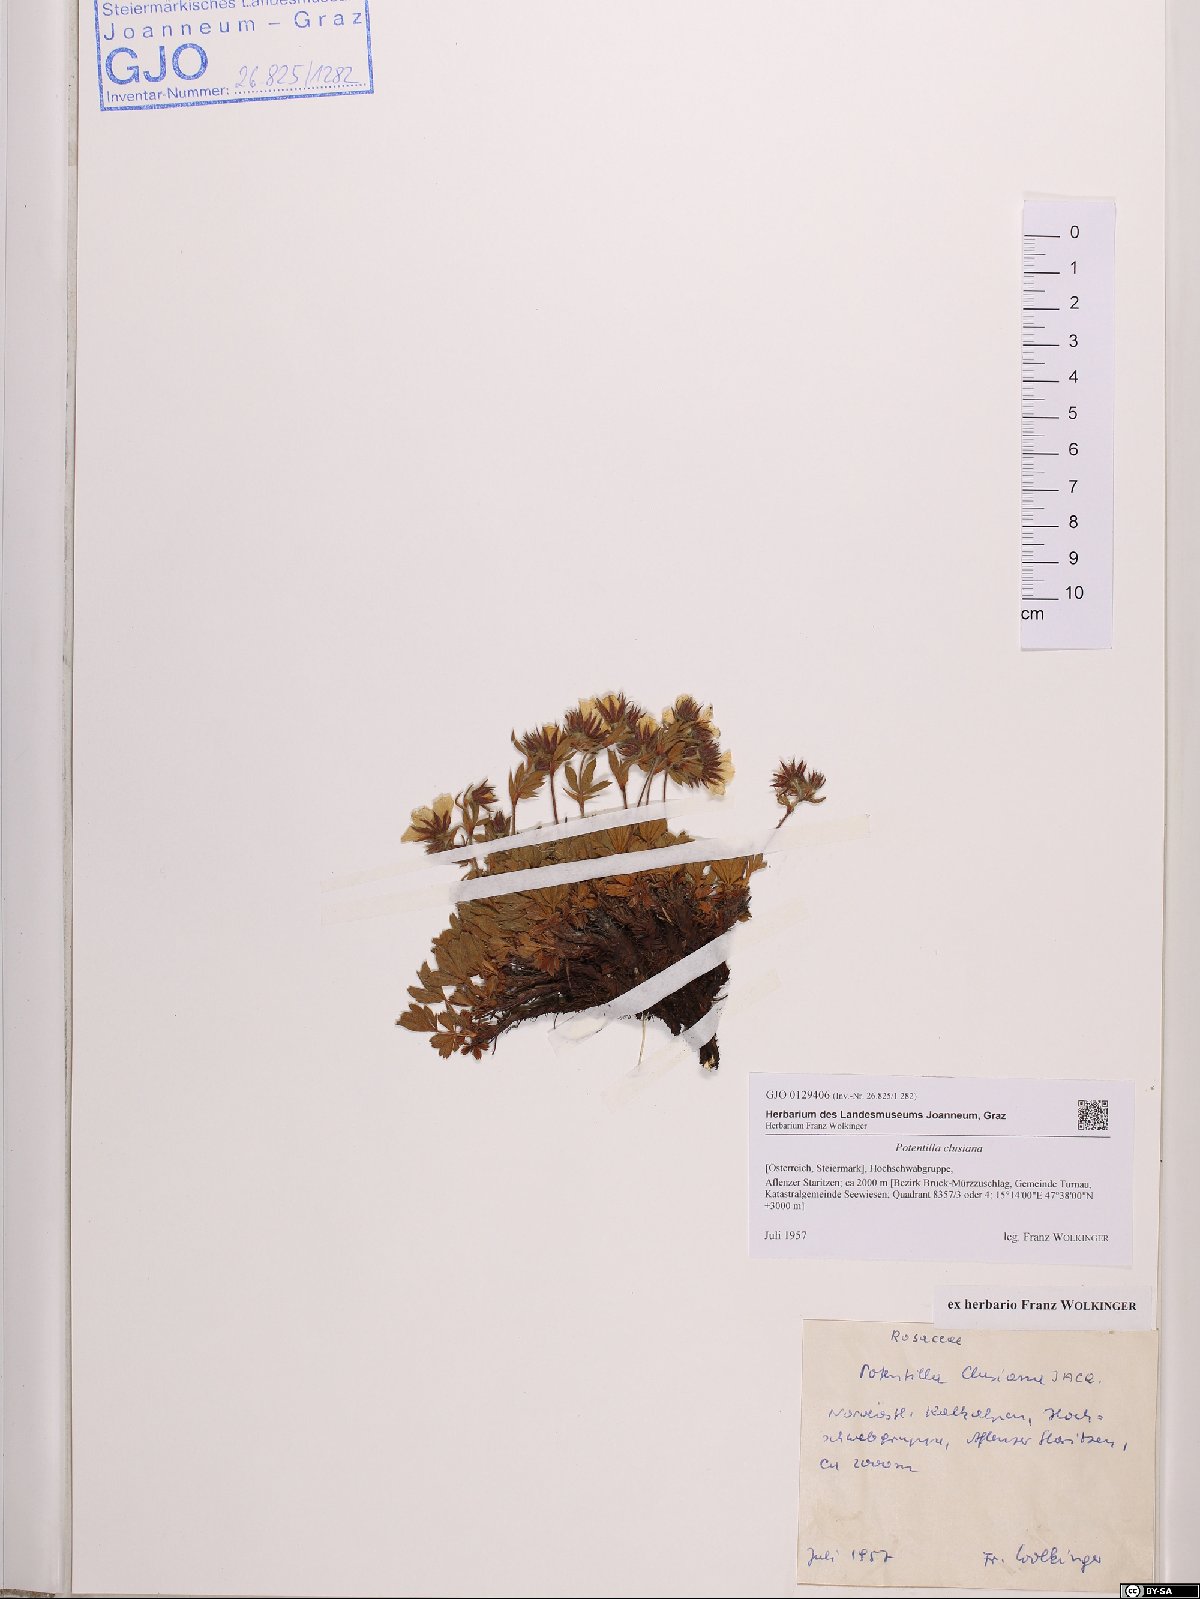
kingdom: Plantae
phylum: Tracheophyta
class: Magnoliopsida
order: Rosales
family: Rosaceae
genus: Potentilla
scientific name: Potentilla clusiana
